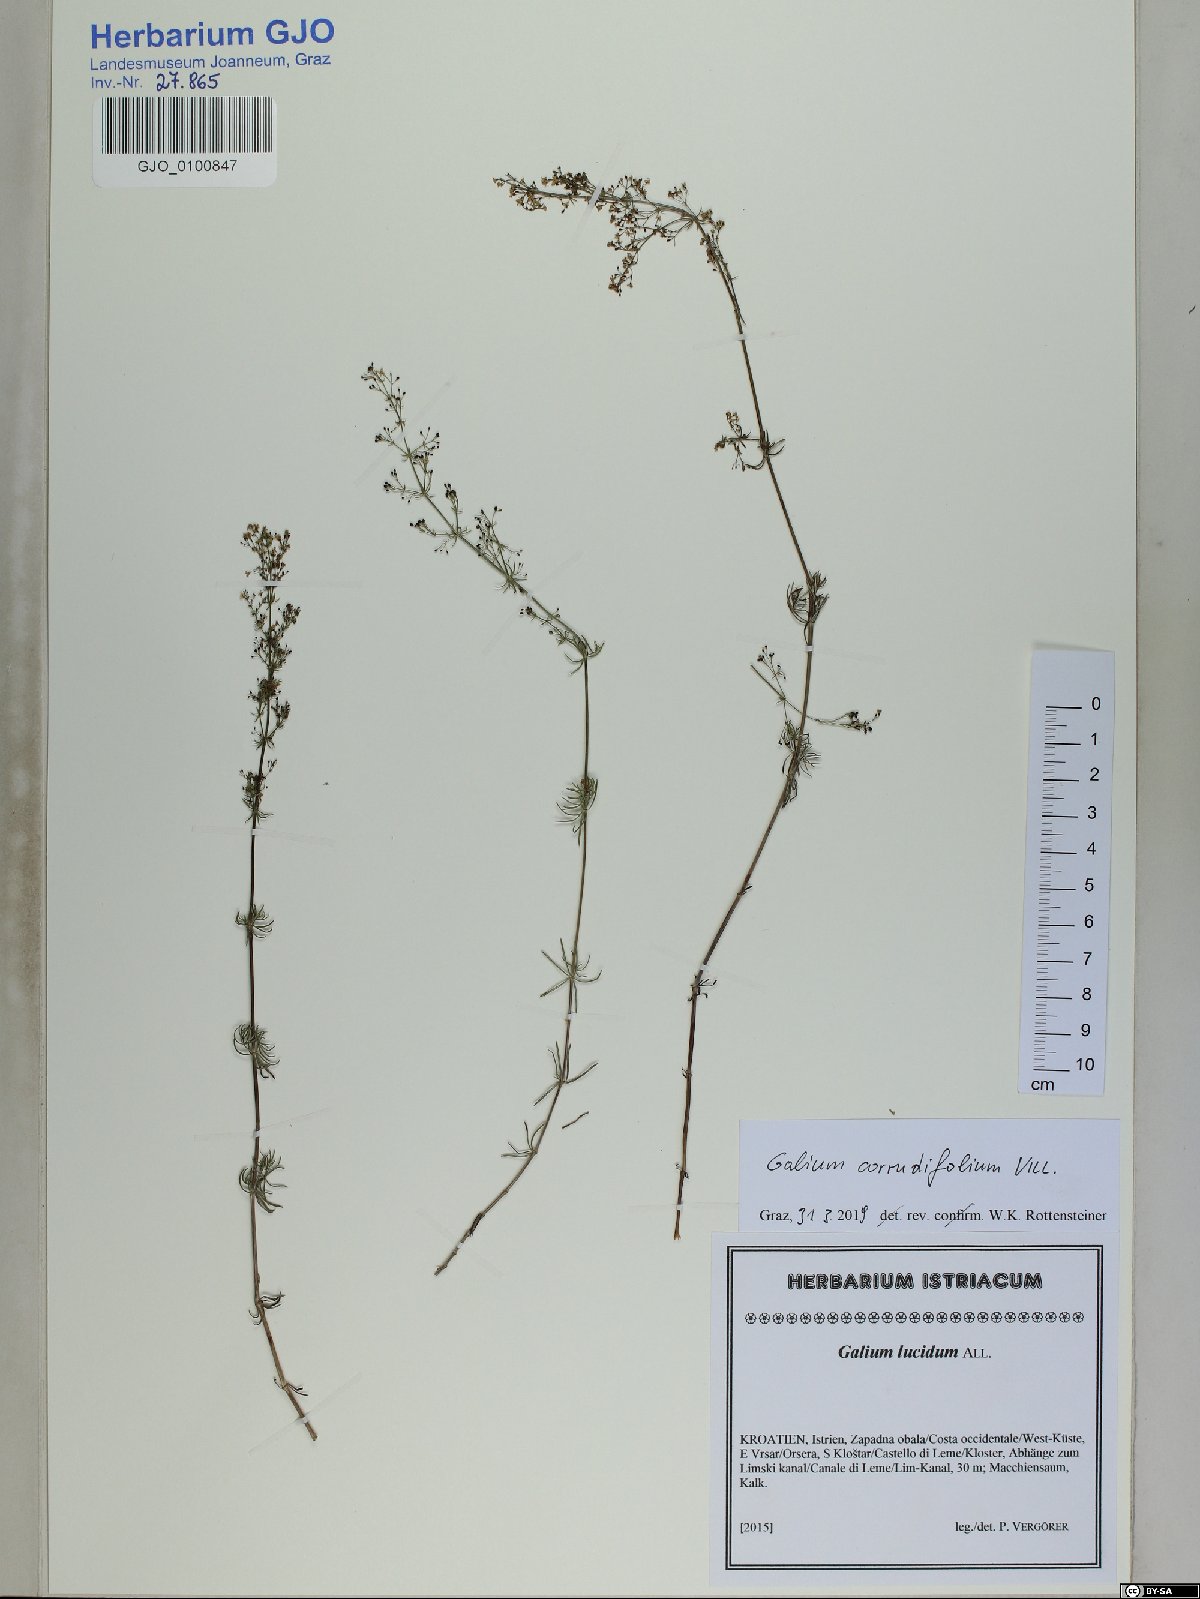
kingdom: Plantae
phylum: Tracheophyta
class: Magnoliopsida
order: Gentianales
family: Rubiaceae
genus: Galium
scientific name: Galium lucidum
